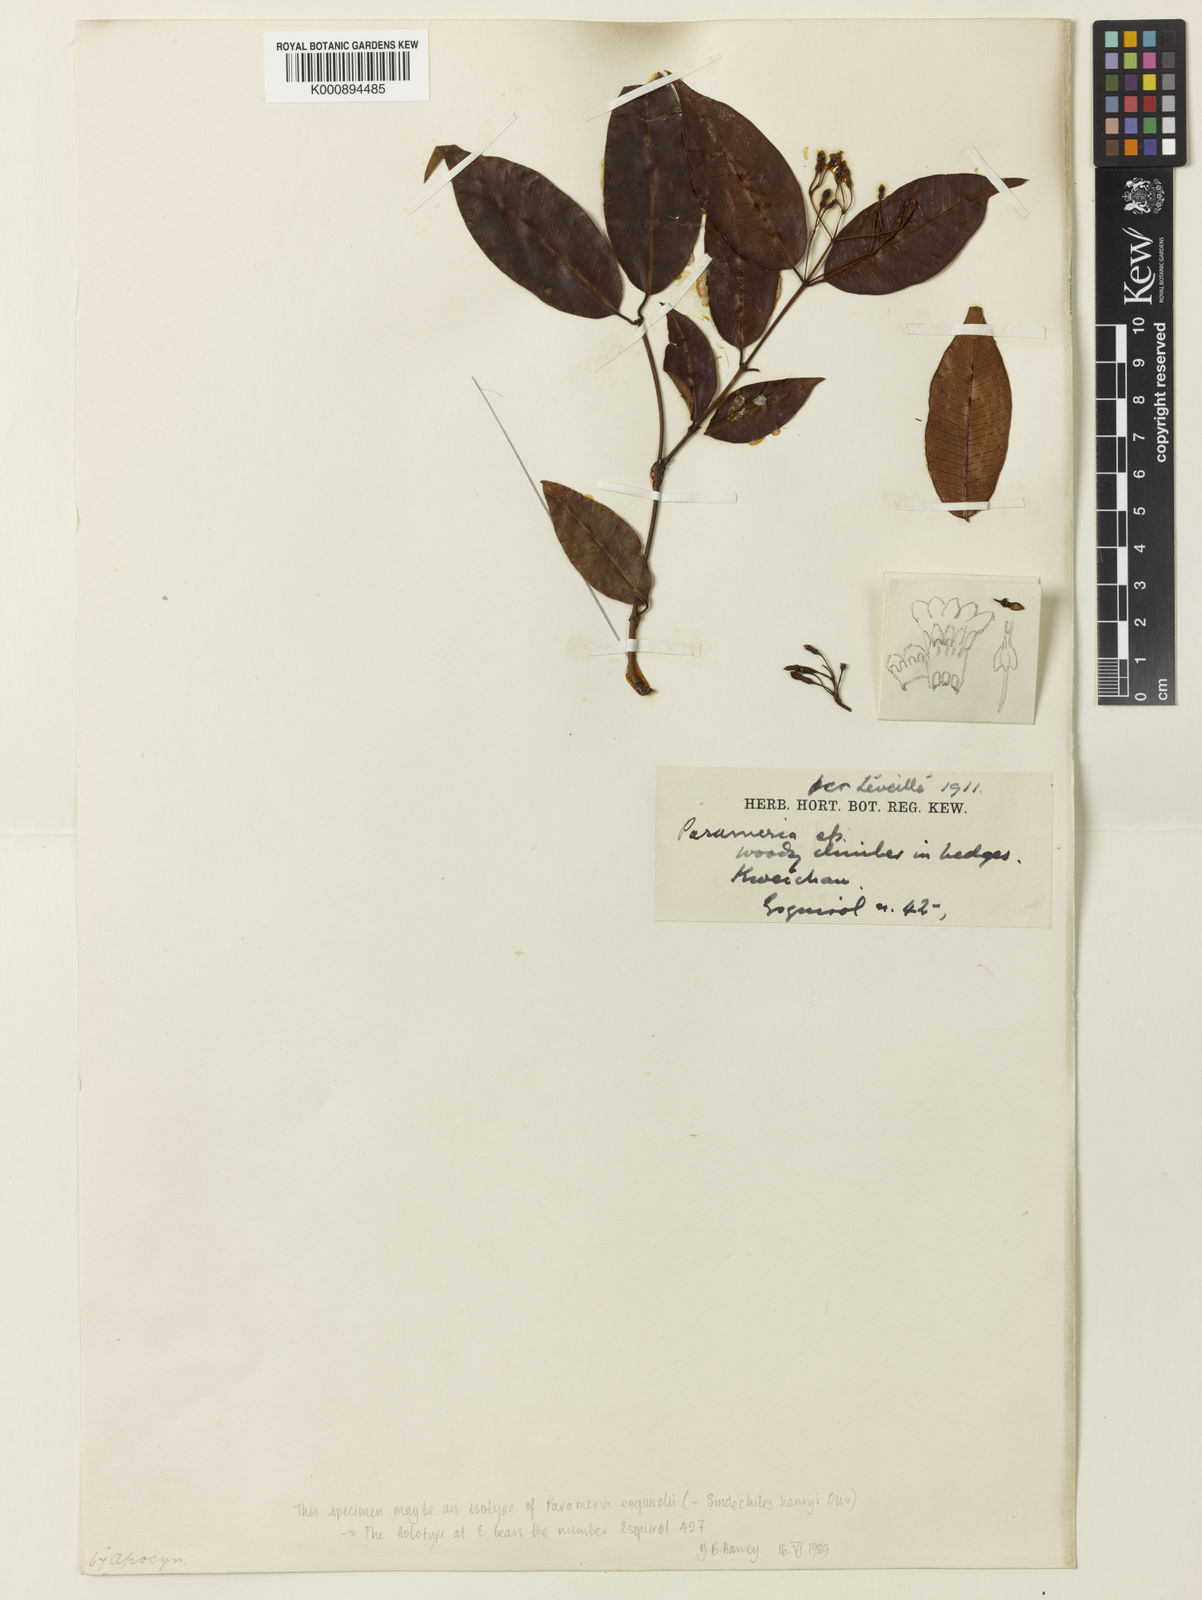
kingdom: Plantae
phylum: Tracheophyta
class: Magnoliopsida
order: Gentianales
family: Apocynaceae
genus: Sindechites
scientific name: Sindechites henryi
